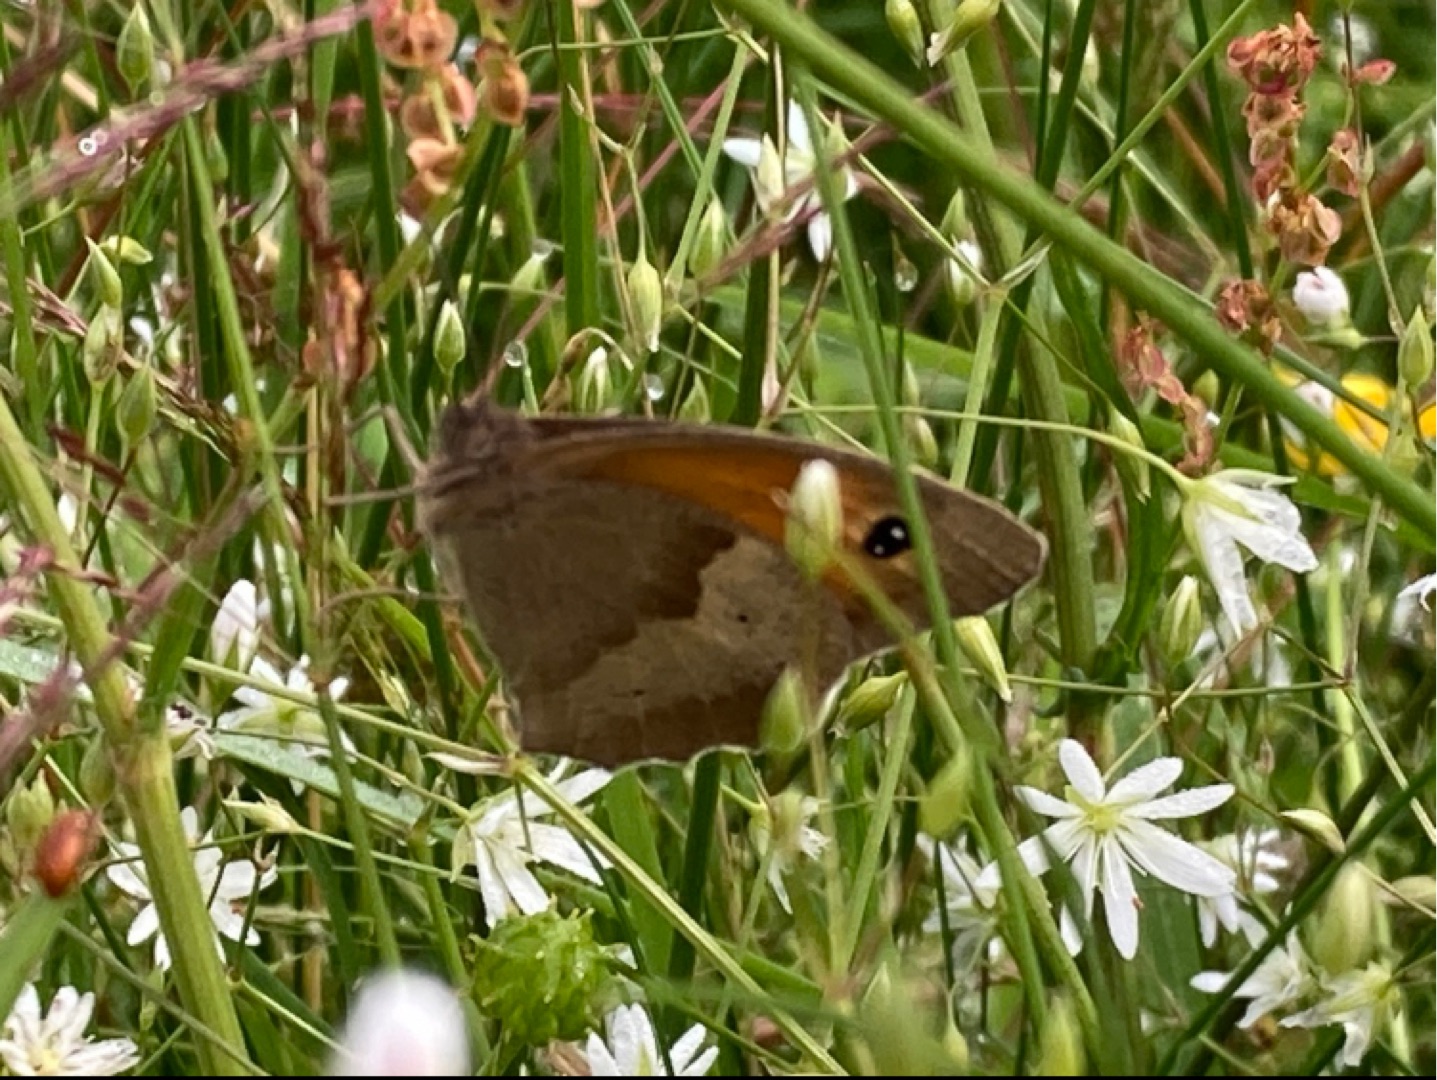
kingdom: Animalia
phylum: Arthropoda
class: Insecta
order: Lepidoptera
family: Nymphalidae
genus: Maniola
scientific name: Maniola jurtina
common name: Græsrandøje
